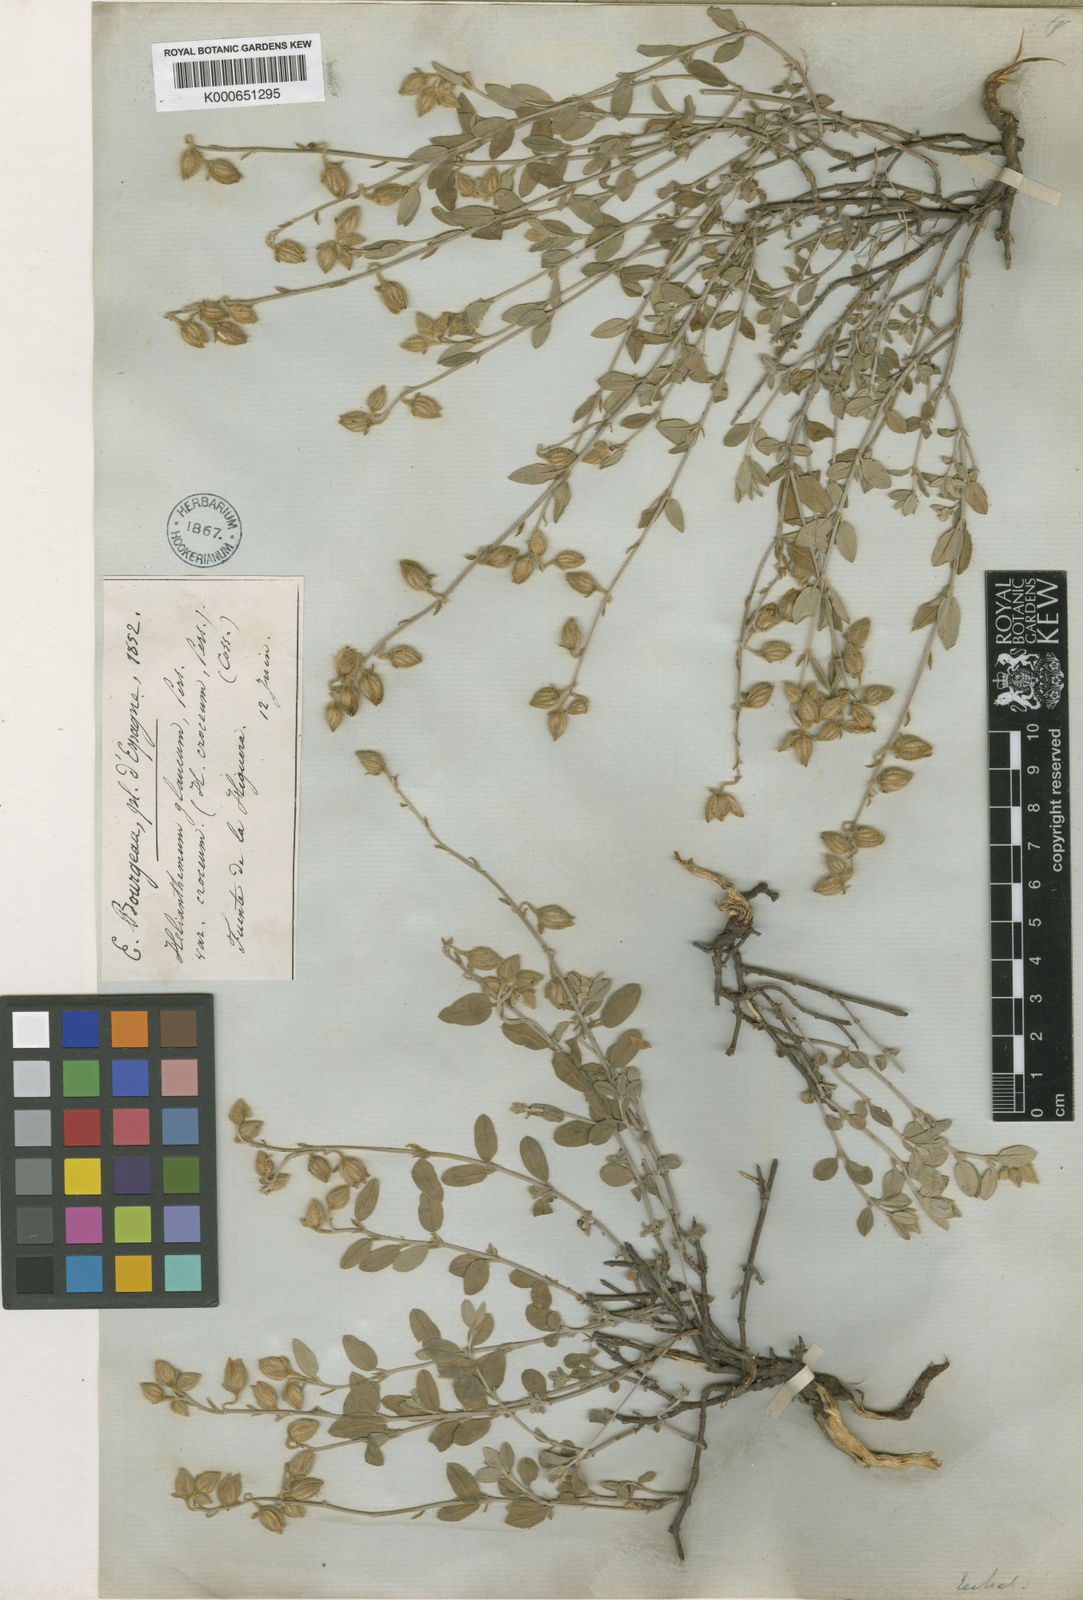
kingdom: Plantae
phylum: Tracheophyta
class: Magnoliopsida
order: Malvales
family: Cistaceae
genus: Helianthemum
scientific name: Helianthemum croceum
